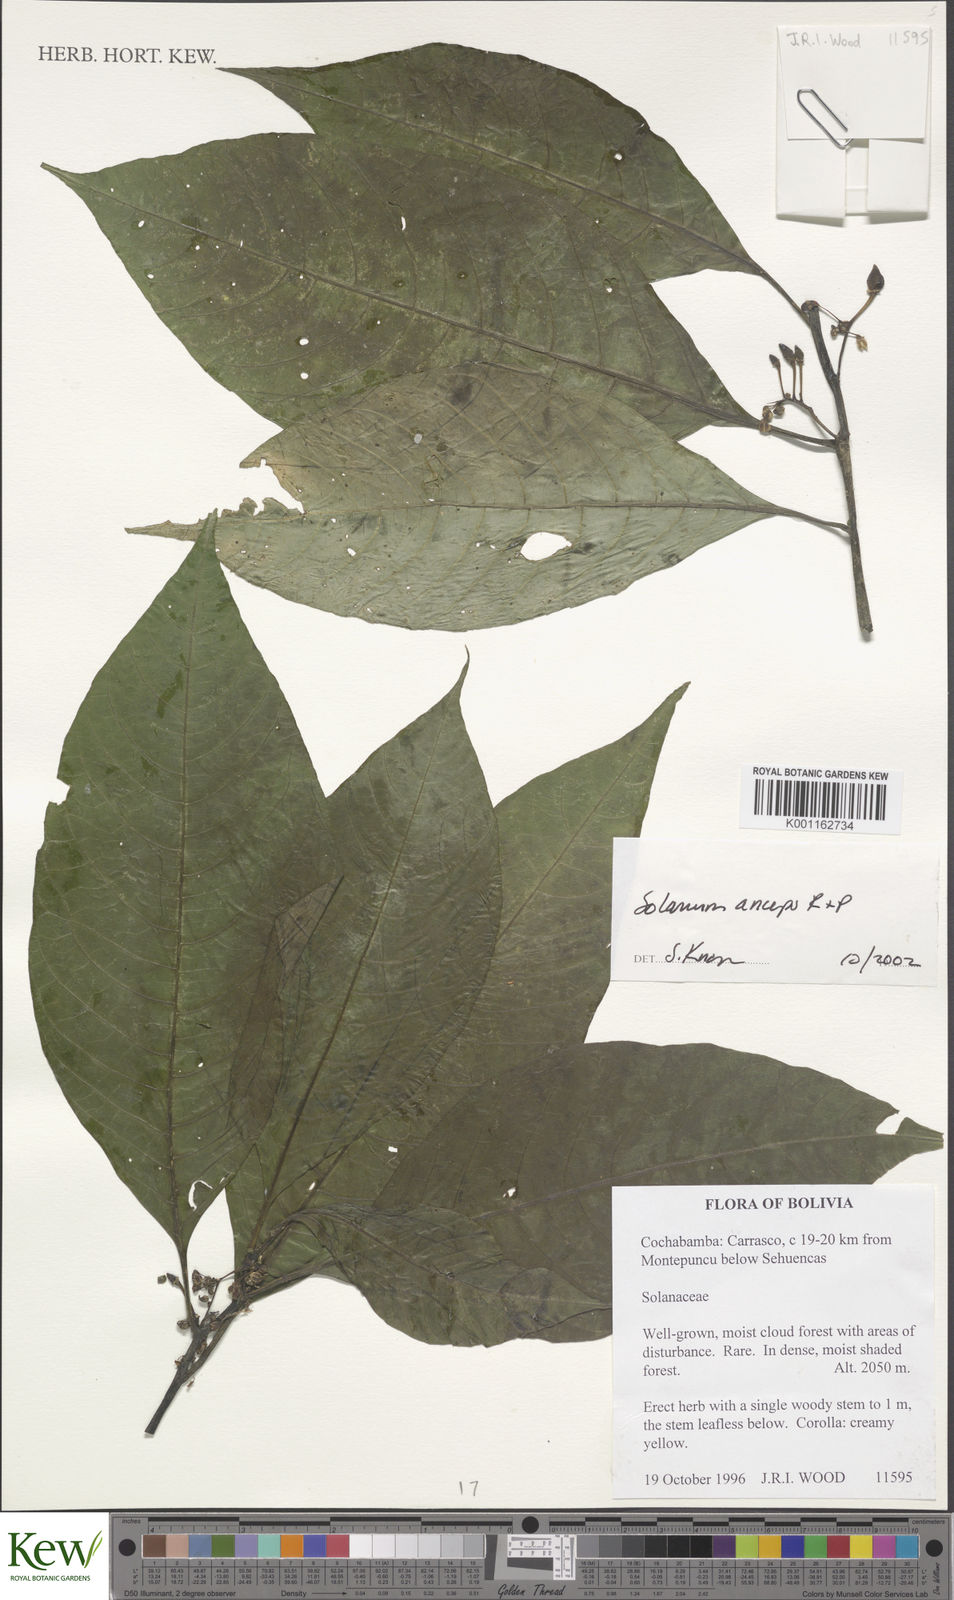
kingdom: Plantae
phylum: Tracheophyta
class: Magnoliopsida
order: Solanales
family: Solanaceae
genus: Solanum
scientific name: Solanum anceps
